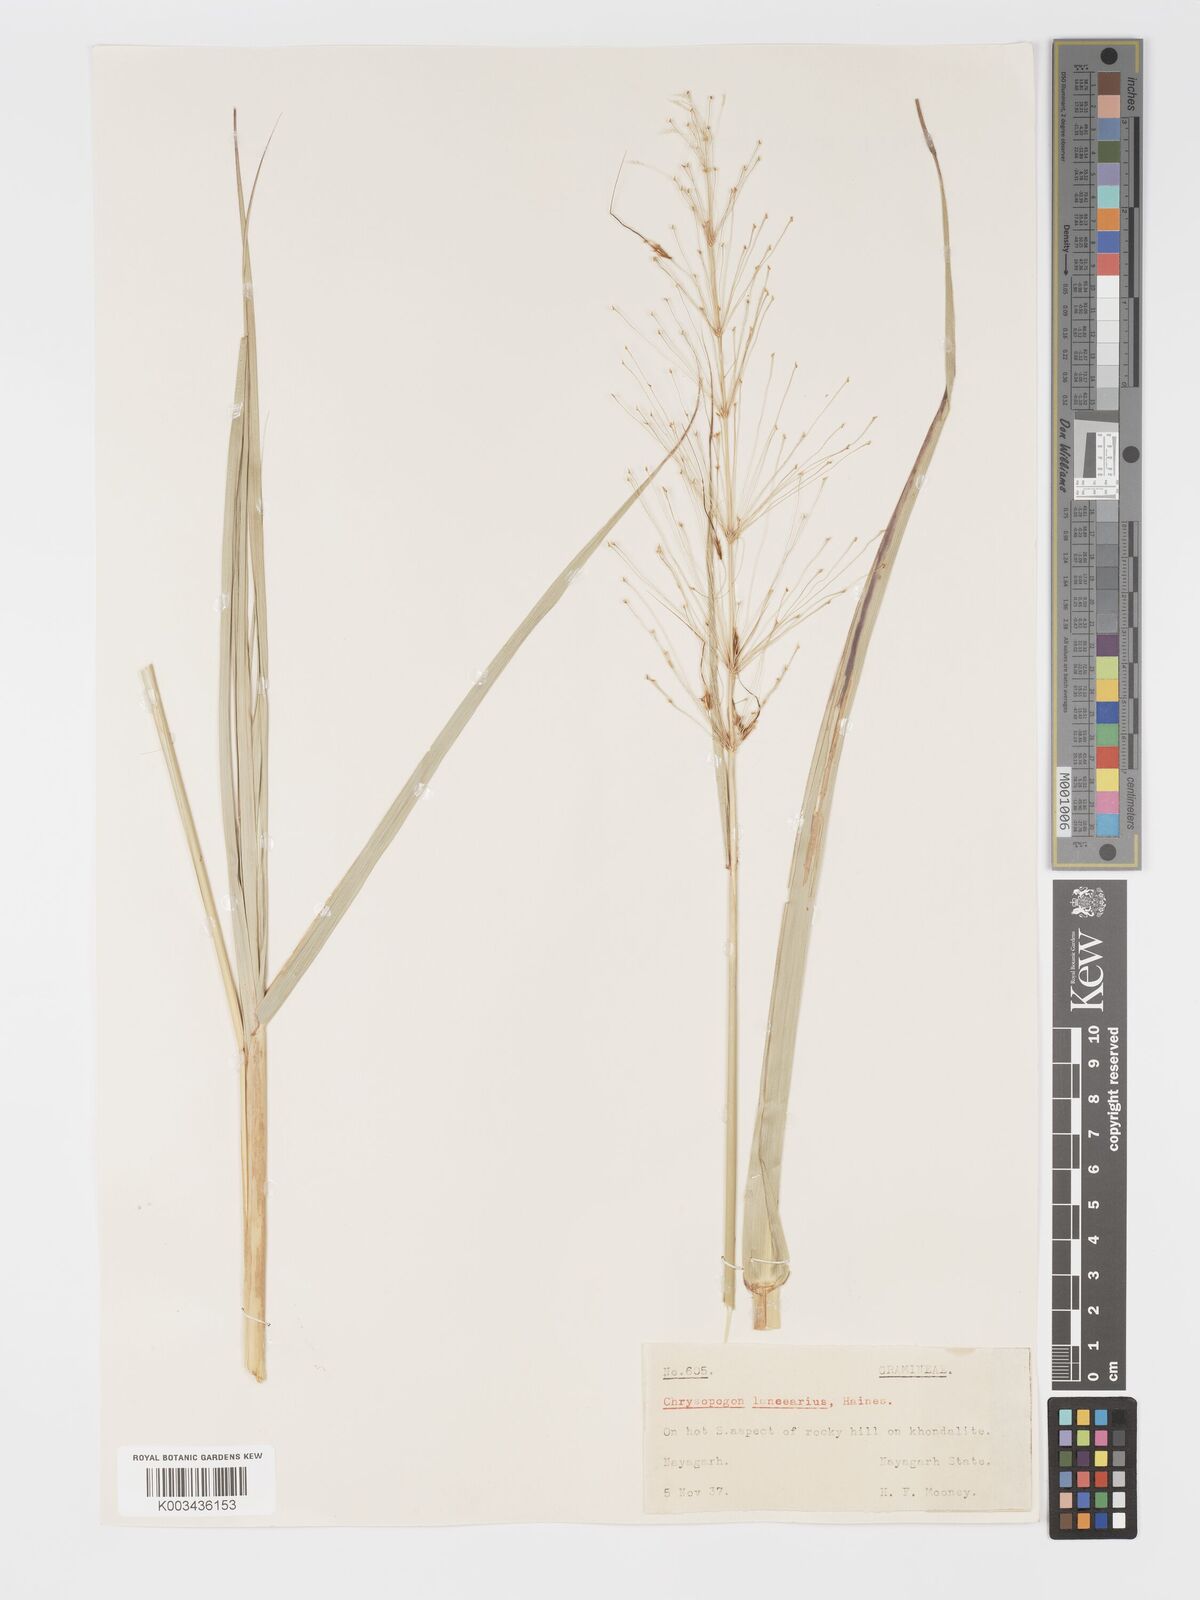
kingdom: Plantae
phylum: Tracheophyta
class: Liliopsida
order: Poales
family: Poaceae
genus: Chrysopogon
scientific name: Chrysopogon lancearius
